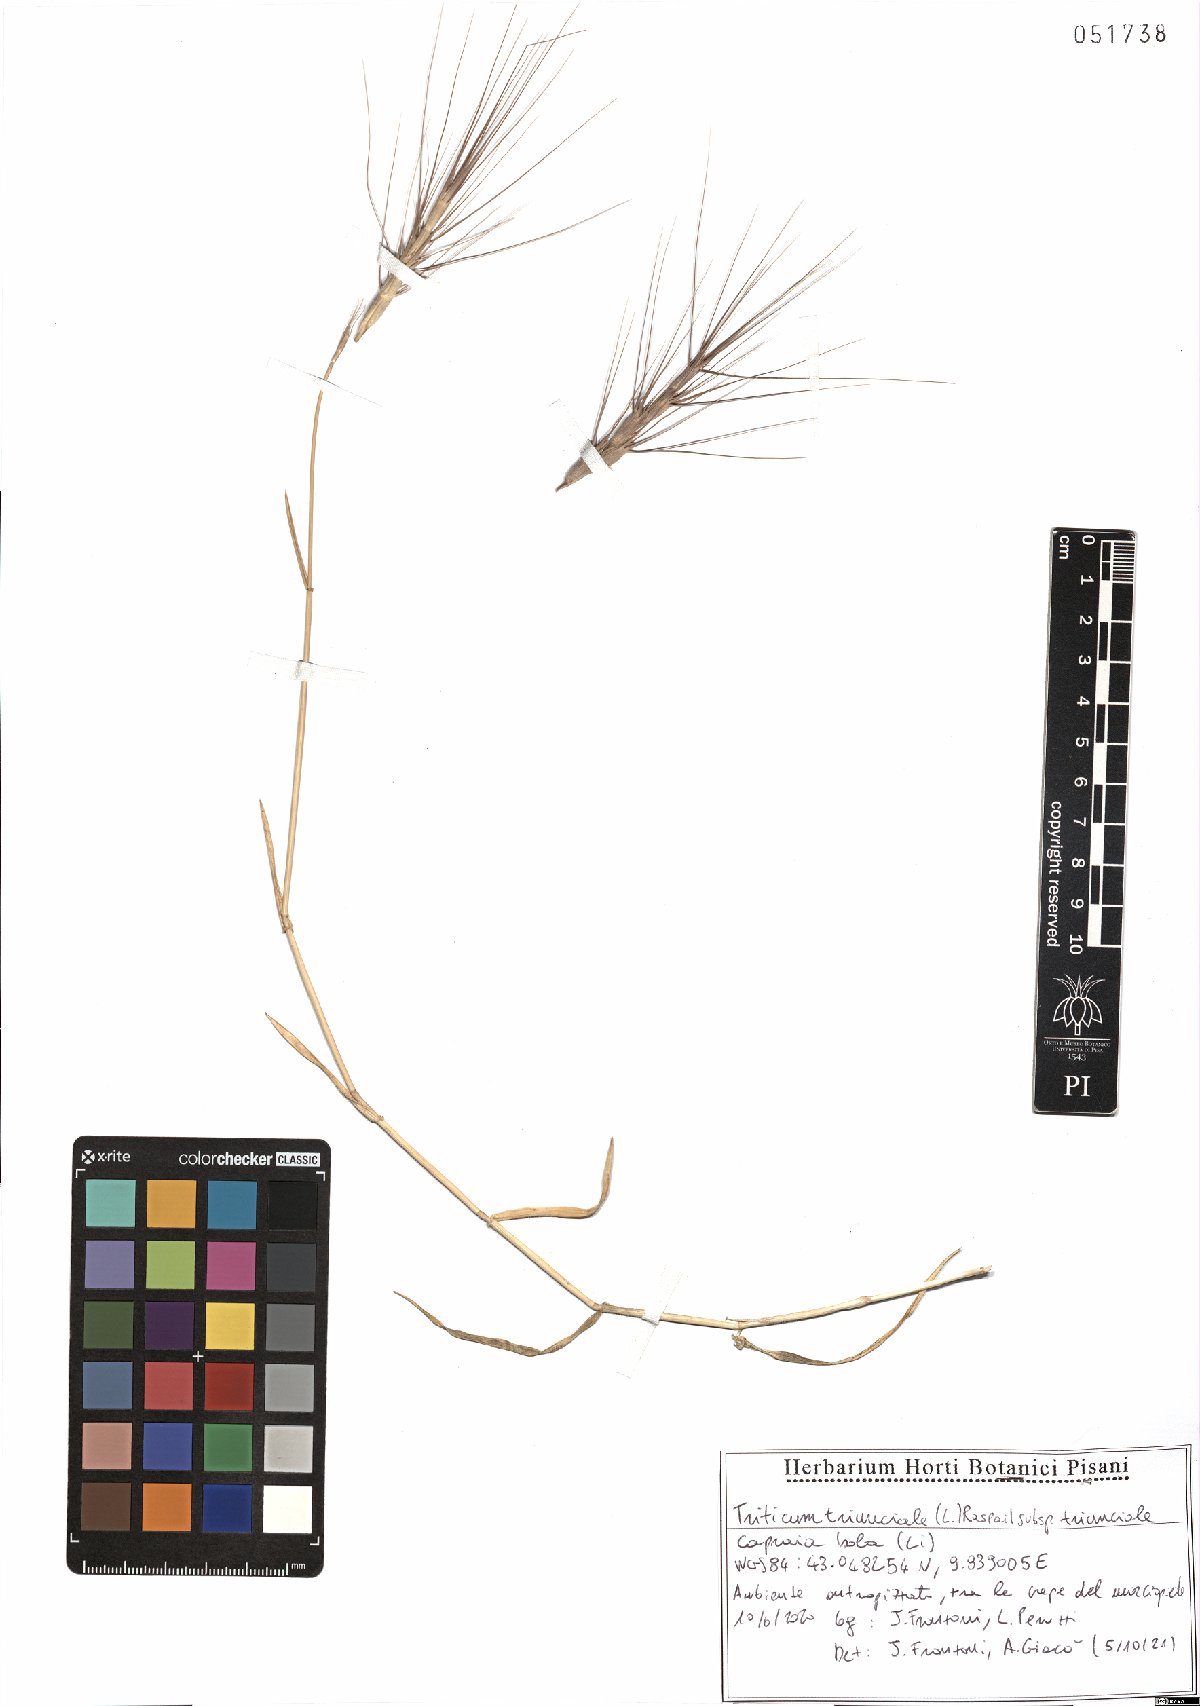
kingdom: Plantae
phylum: Tracheophyta
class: Liliopsida
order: Poales
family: Poaceae
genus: Aegilops
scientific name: Aegilops triuncialis
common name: Barb goat grass
